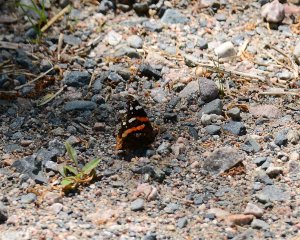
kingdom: Animalia
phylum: Arthropoda
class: Insecta
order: Lepidoptera
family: Nymphalidae
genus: Vanessa
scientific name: Vanessa atalanta
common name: Red Admiral
